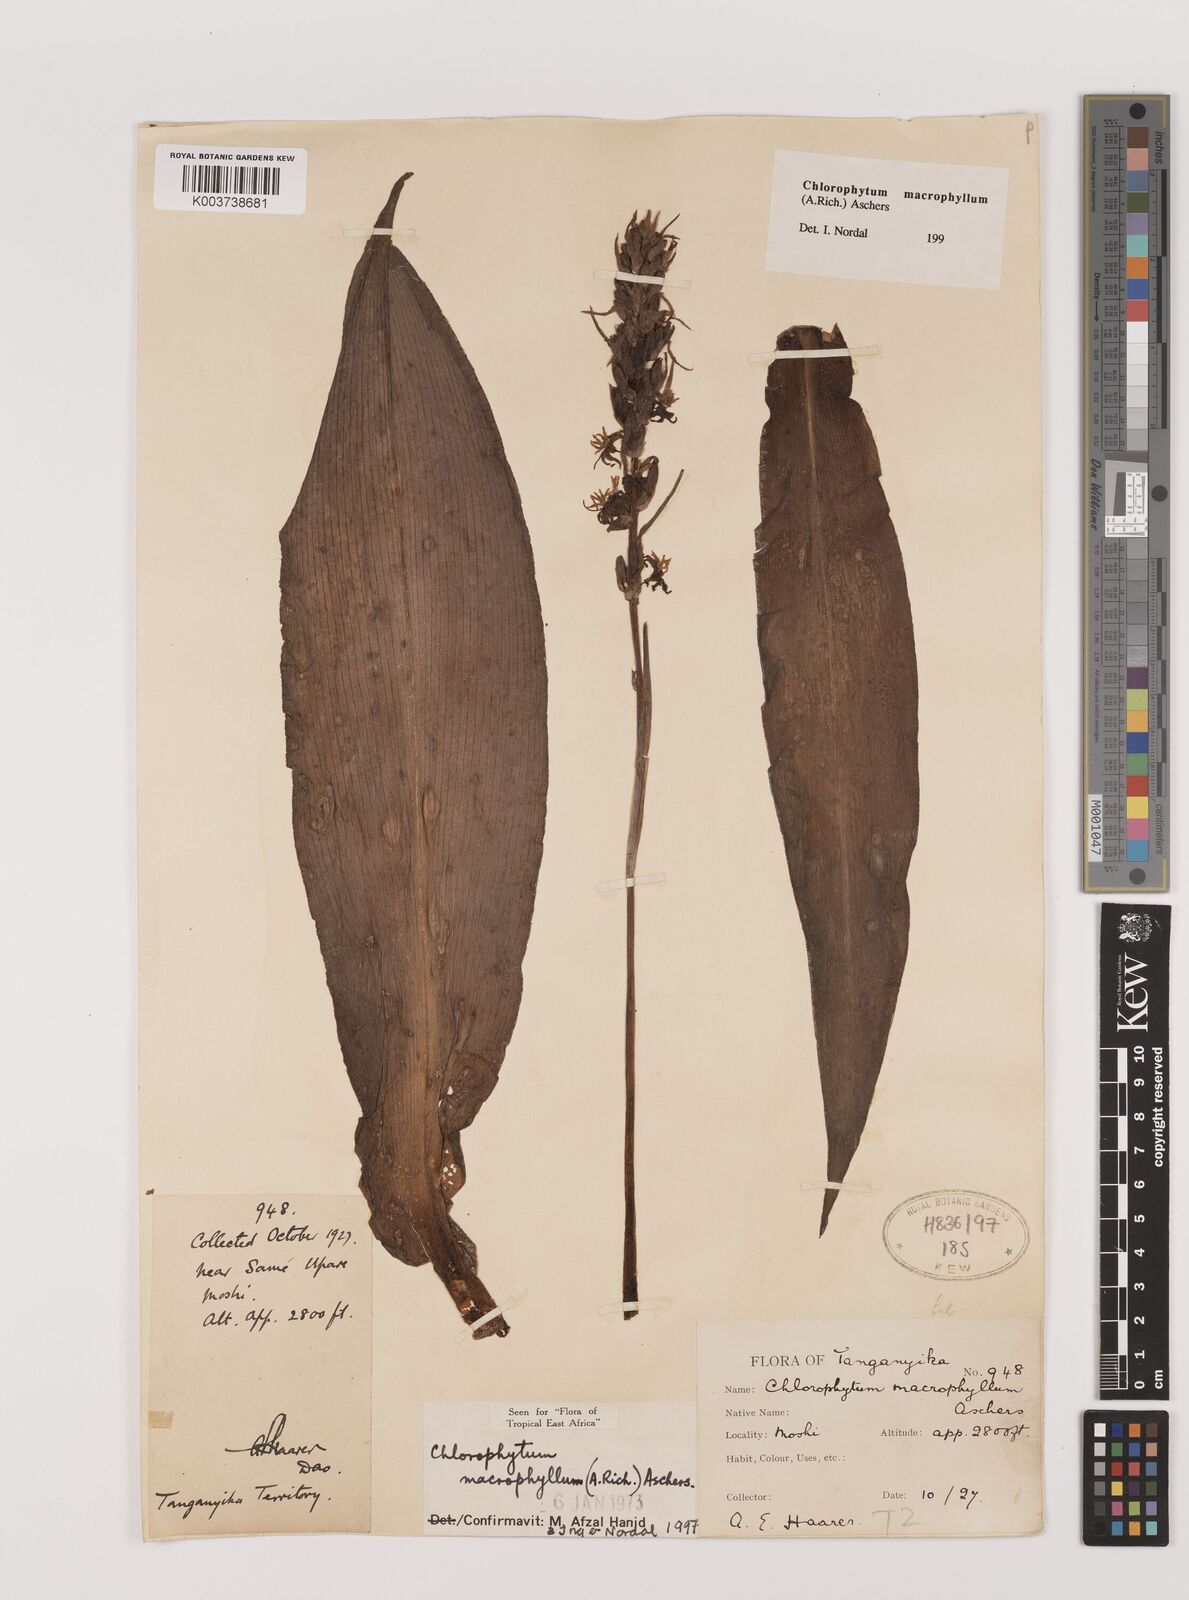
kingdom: Plantae
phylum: Tracheophyta
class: Liliopsida
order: Asparagales
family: Asparagaceae
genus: Chlorophytum
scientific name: Chlorophytum macrophyllum
